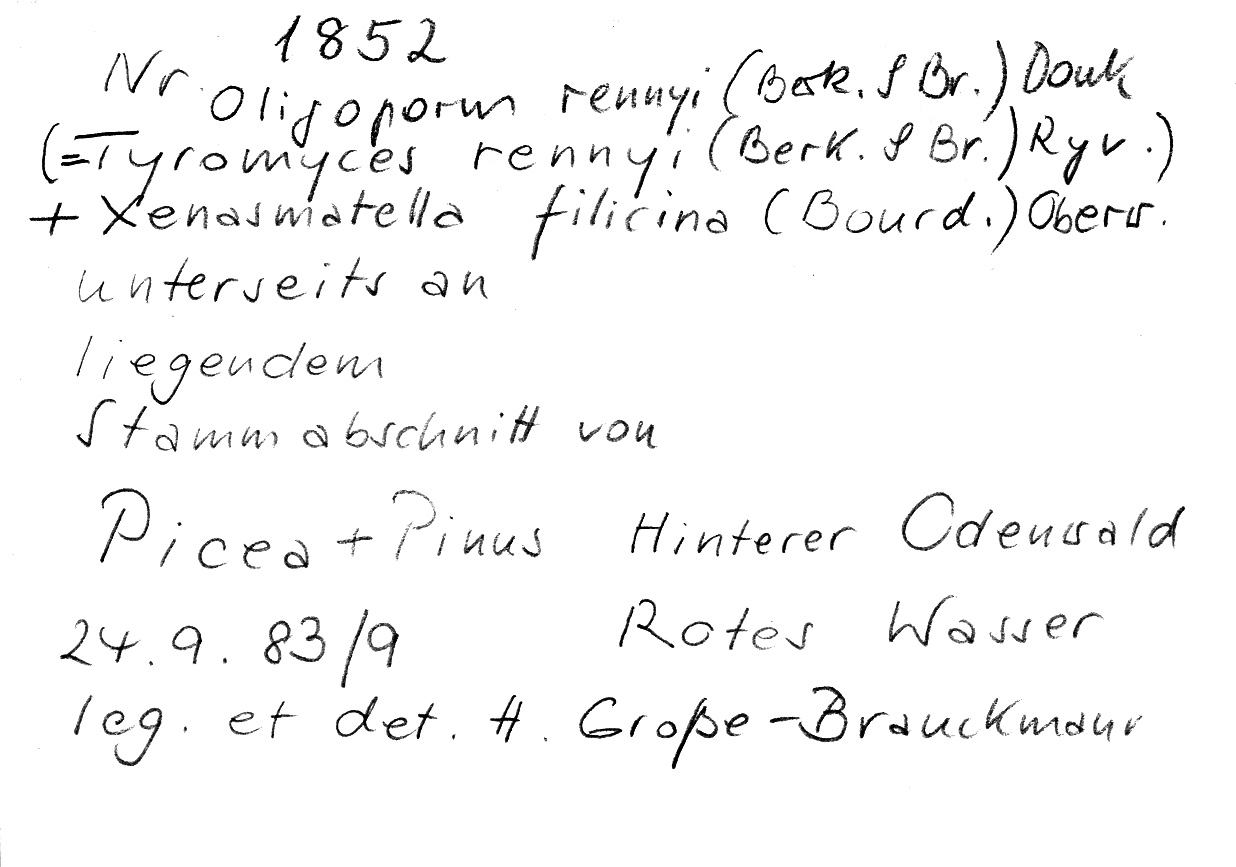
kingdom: Plantae
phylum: Tracheophyta
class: Pinopsida
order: Pinales
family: Pinaceae
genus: Pinus
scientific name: Pinus
